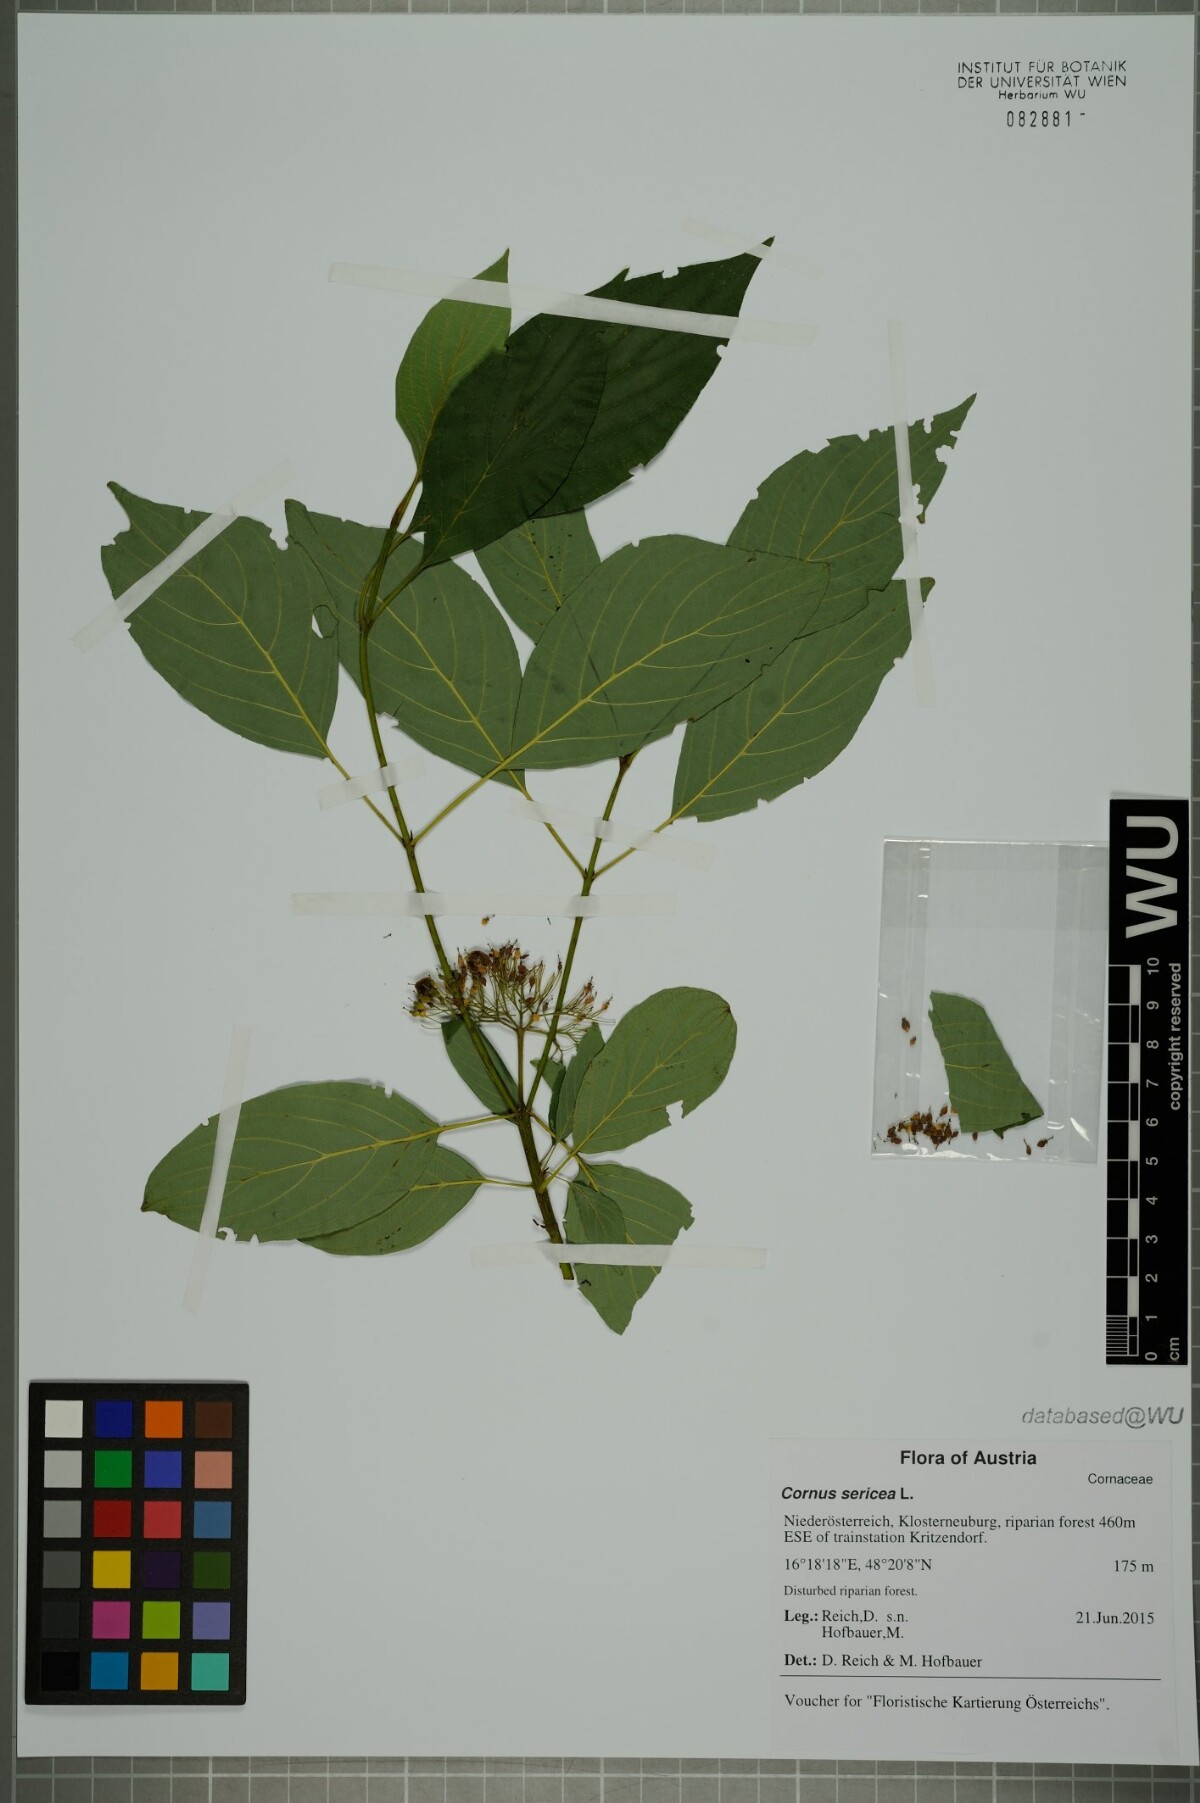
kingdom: Plantae
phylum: Tracheophyta
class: Magnoliopsida
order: Cornales
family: Cornaceae
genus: Cornus
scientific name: Cornus sericea
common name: Red-osier dogwood
